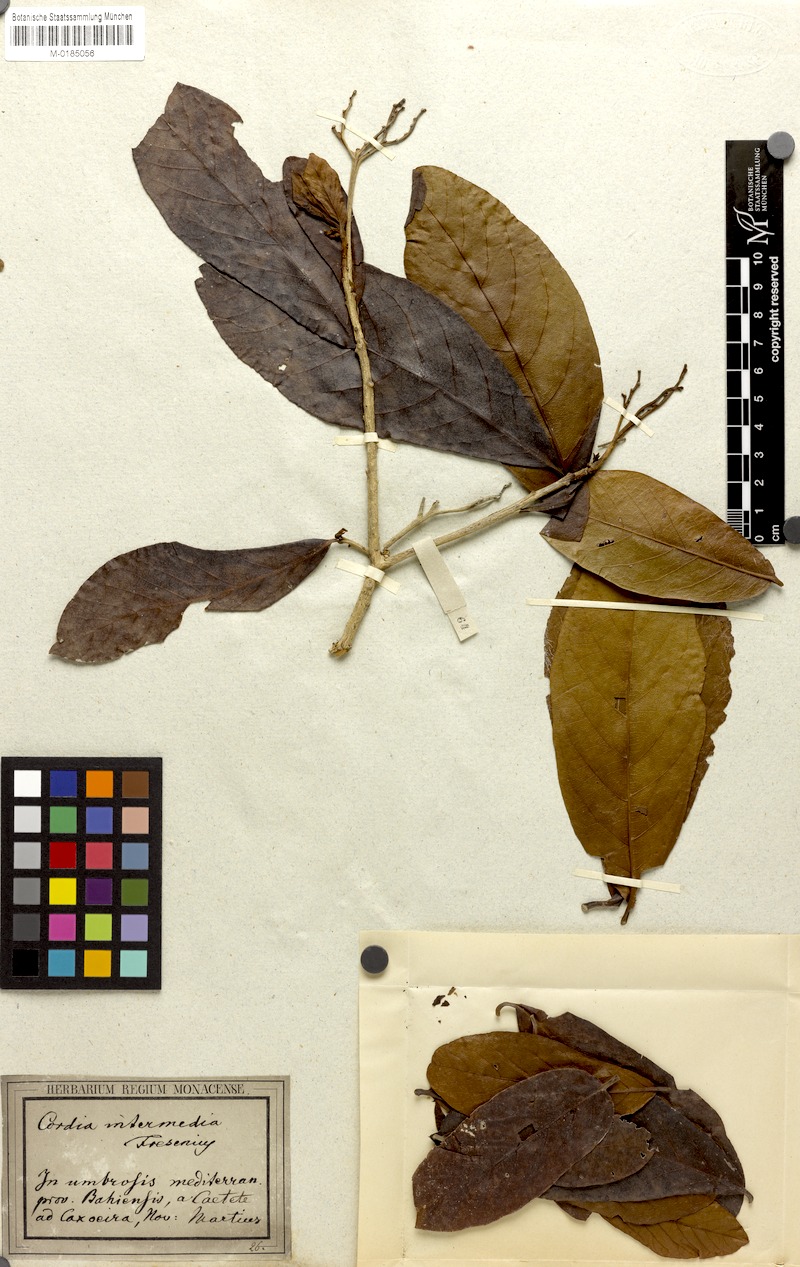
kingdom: Plantae
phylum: Tracheophyta
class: Magnoliopsida
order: Boraginales
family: Cordiaceae
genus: Cordia
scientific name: Cordia intermedia
